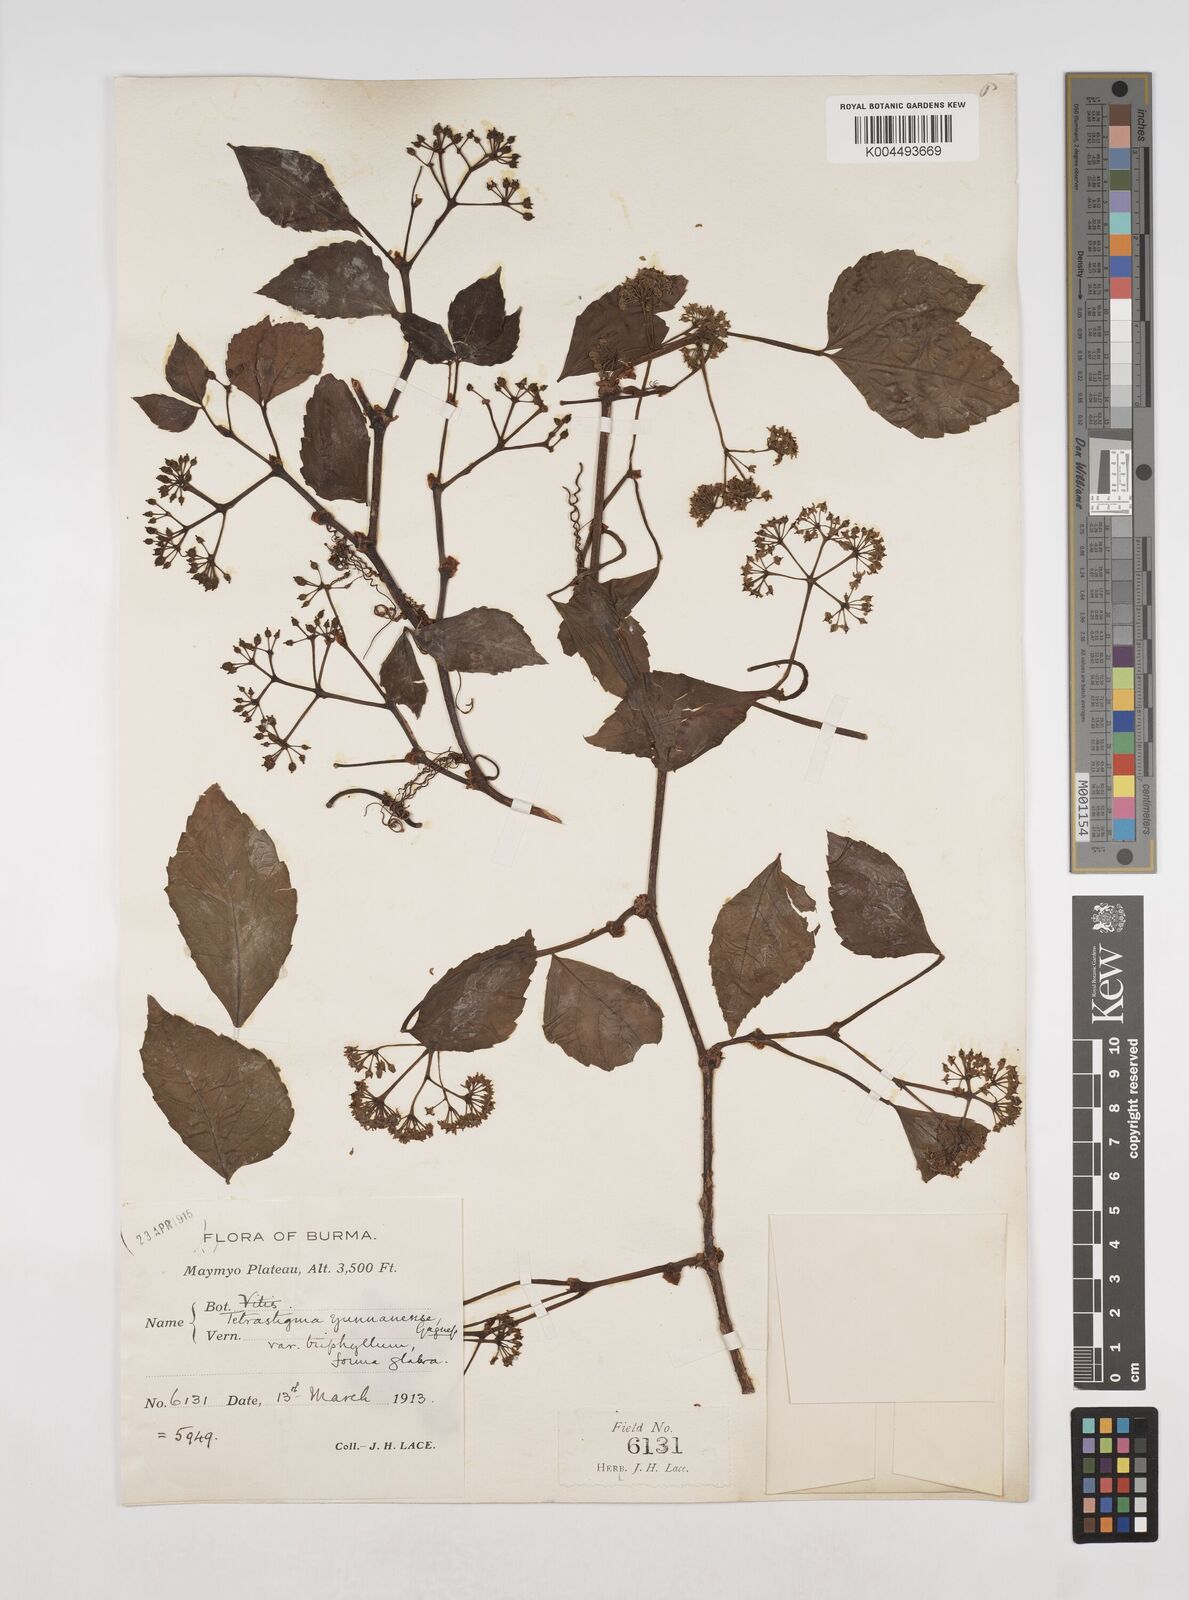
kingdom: Plantae
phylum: Tracheophyta
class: Magnoliopsida
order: Vitales
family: Vitaceae
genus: Tetrastigma
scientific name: Tetrastigma yunnanense
